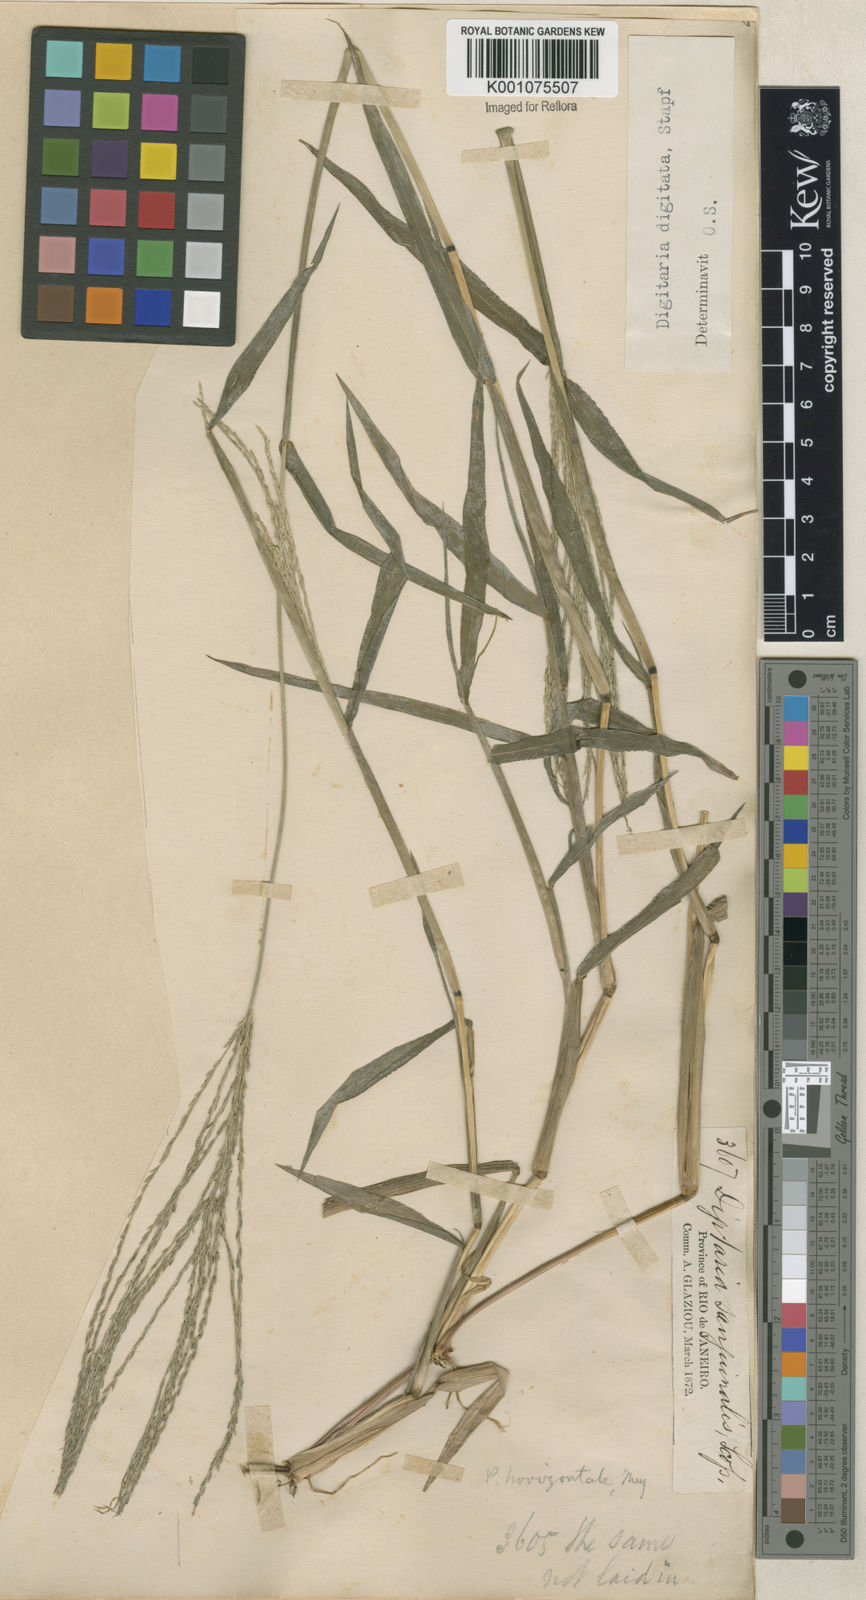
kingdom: Plantae
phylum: Tracheophyta
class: Liliopsida
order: Poales
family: Poaceae
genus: Digitaria
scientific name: Digitaria horizontalis
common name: Jamaican crabgrass
